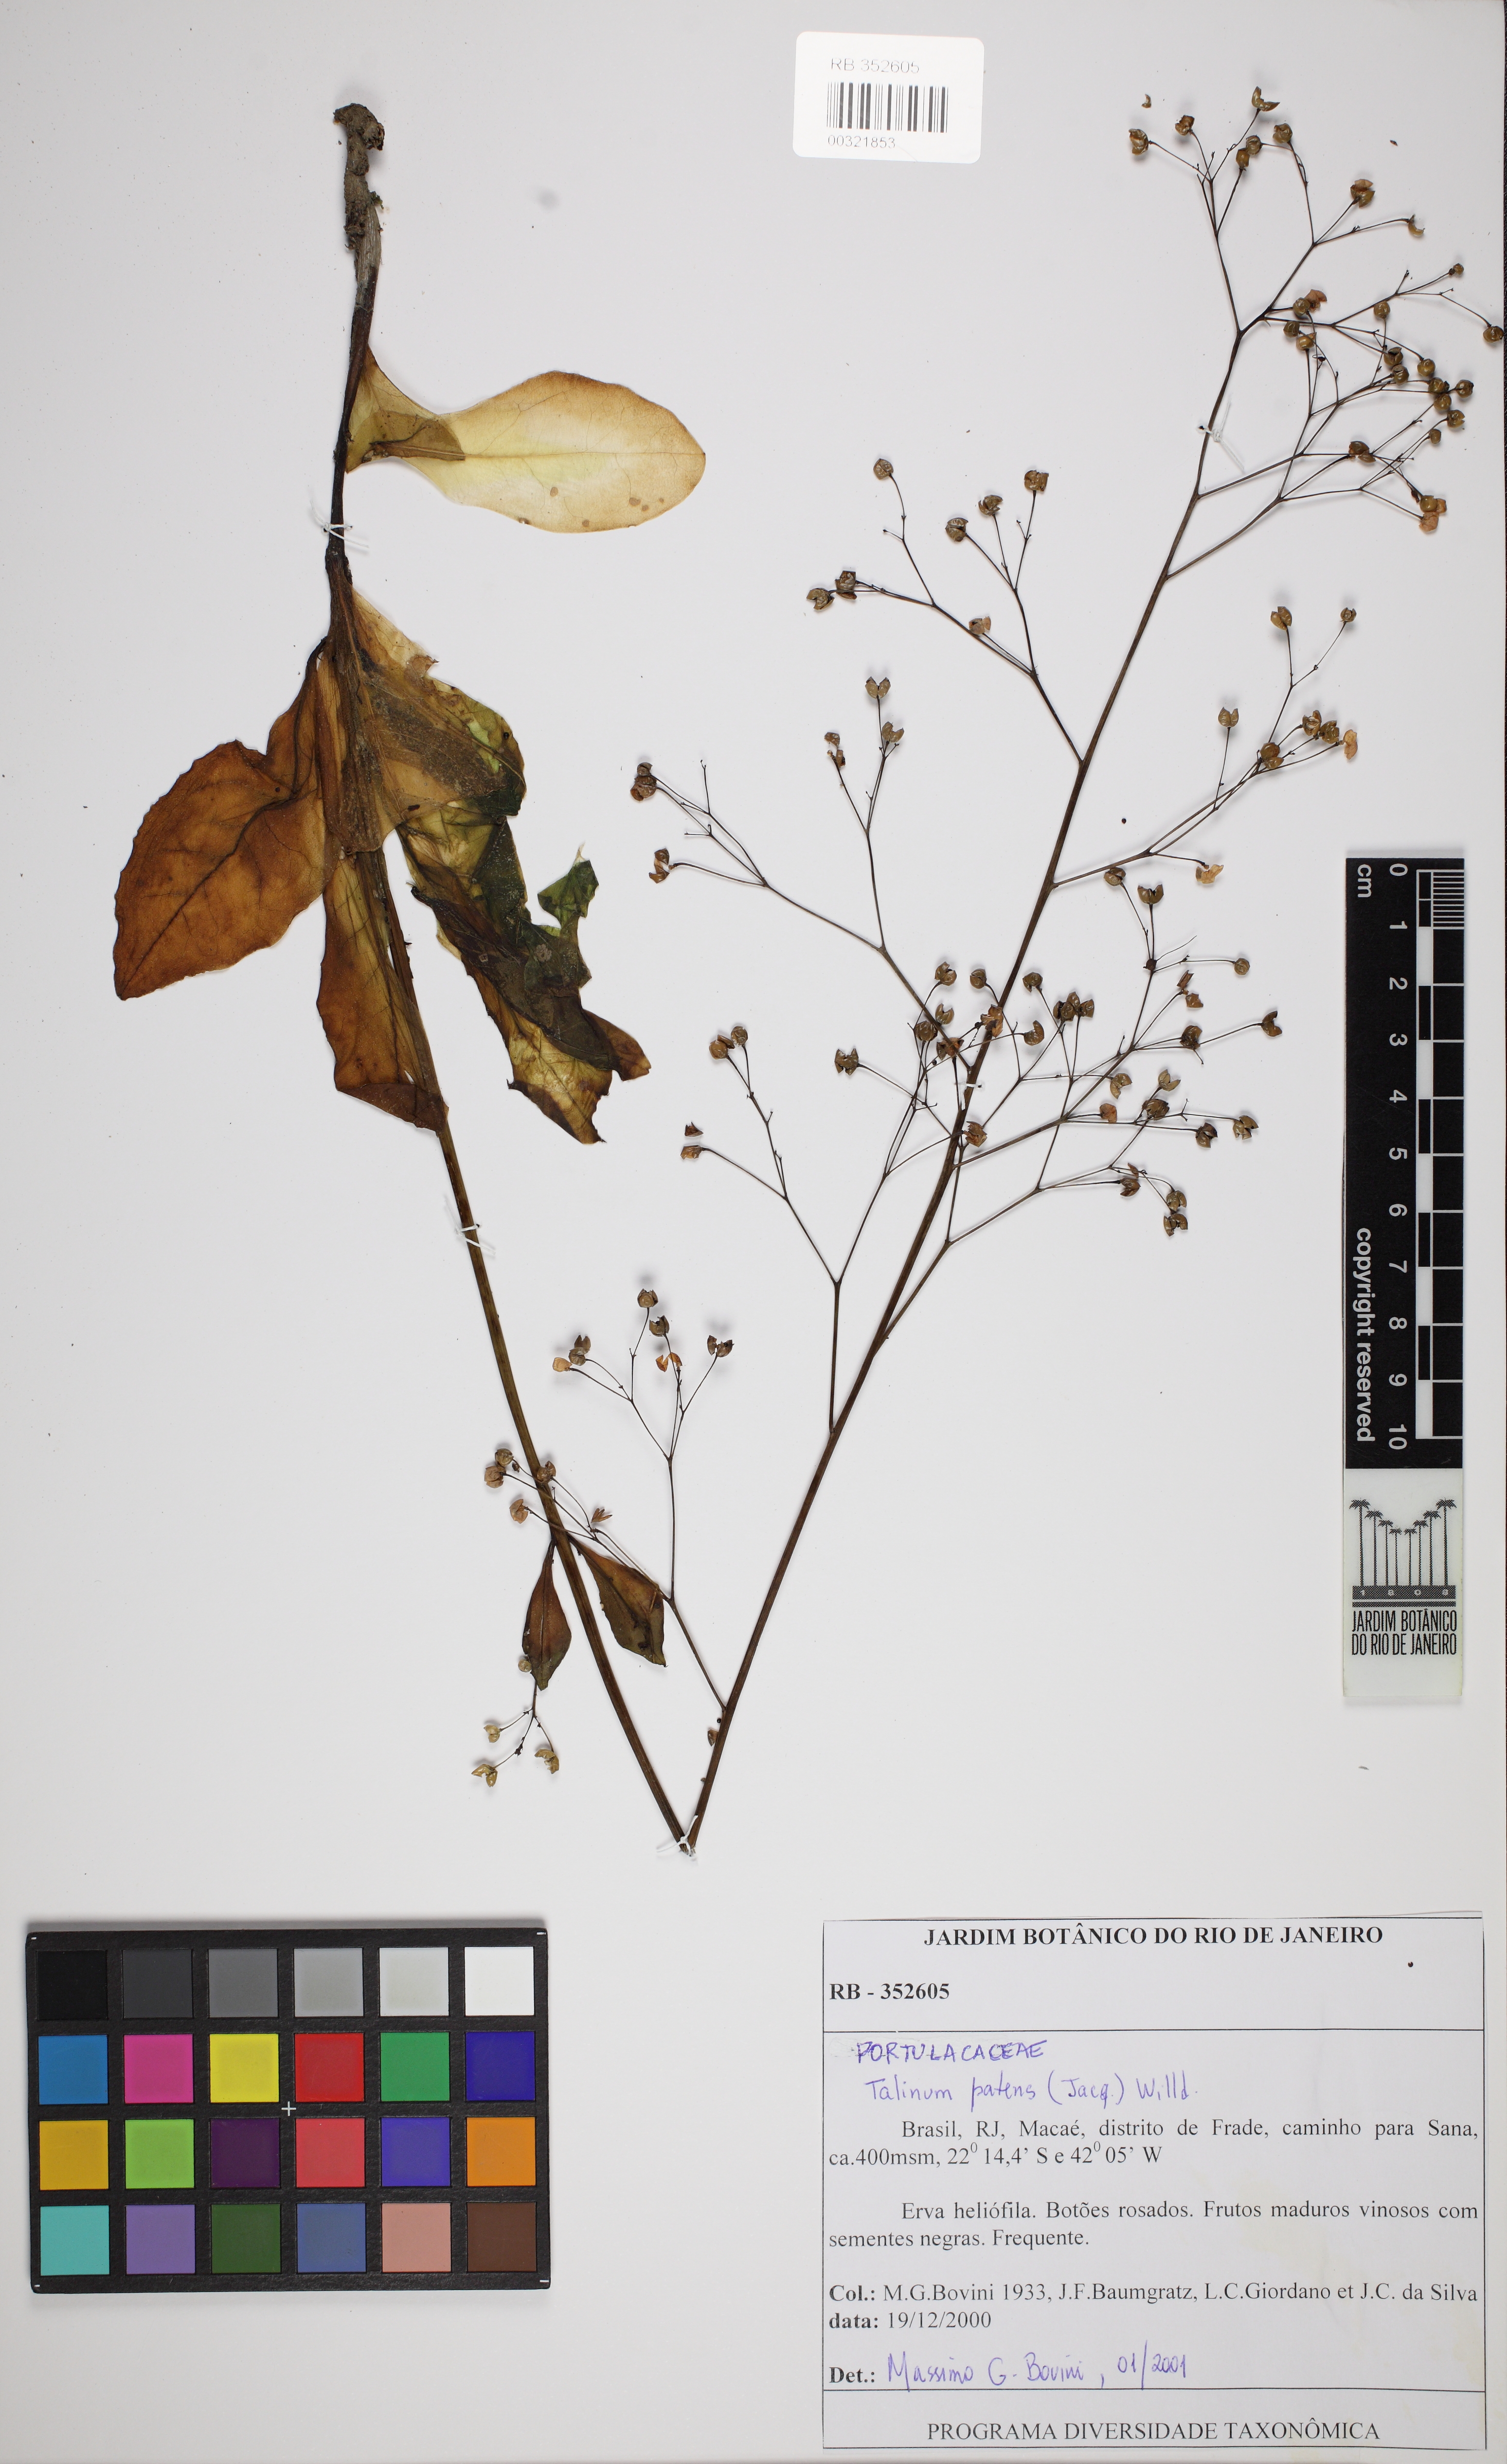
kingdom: Plantae
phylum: Tracheophyta
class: Magnoliopsida
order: Caryophyllales
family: Talinaceae
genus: Talinum
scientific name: Talinum paniculatum
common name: Jewels of opar
